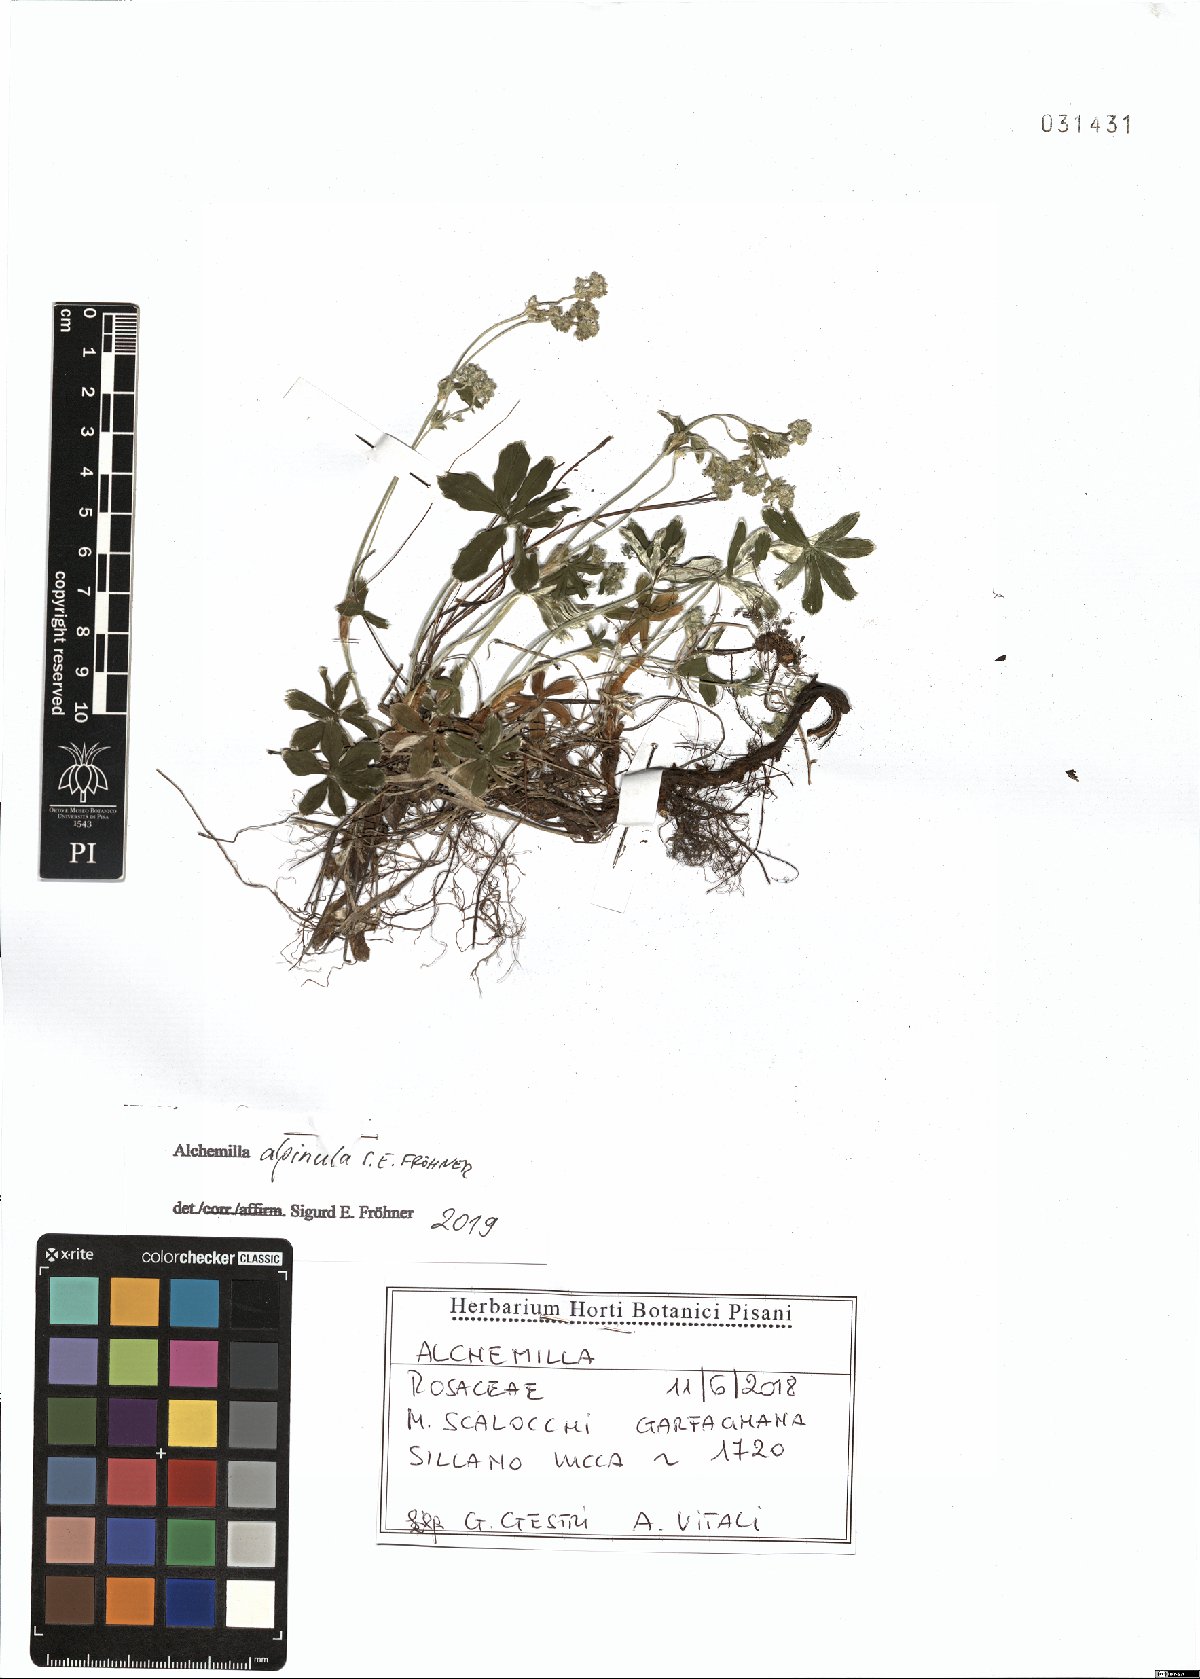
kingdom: Plantae
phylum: Tracheophyta
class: Magnoliopsida
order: Rosales
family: Rosaceae
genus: Alchemilla
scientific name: Alchemilla alpinula
